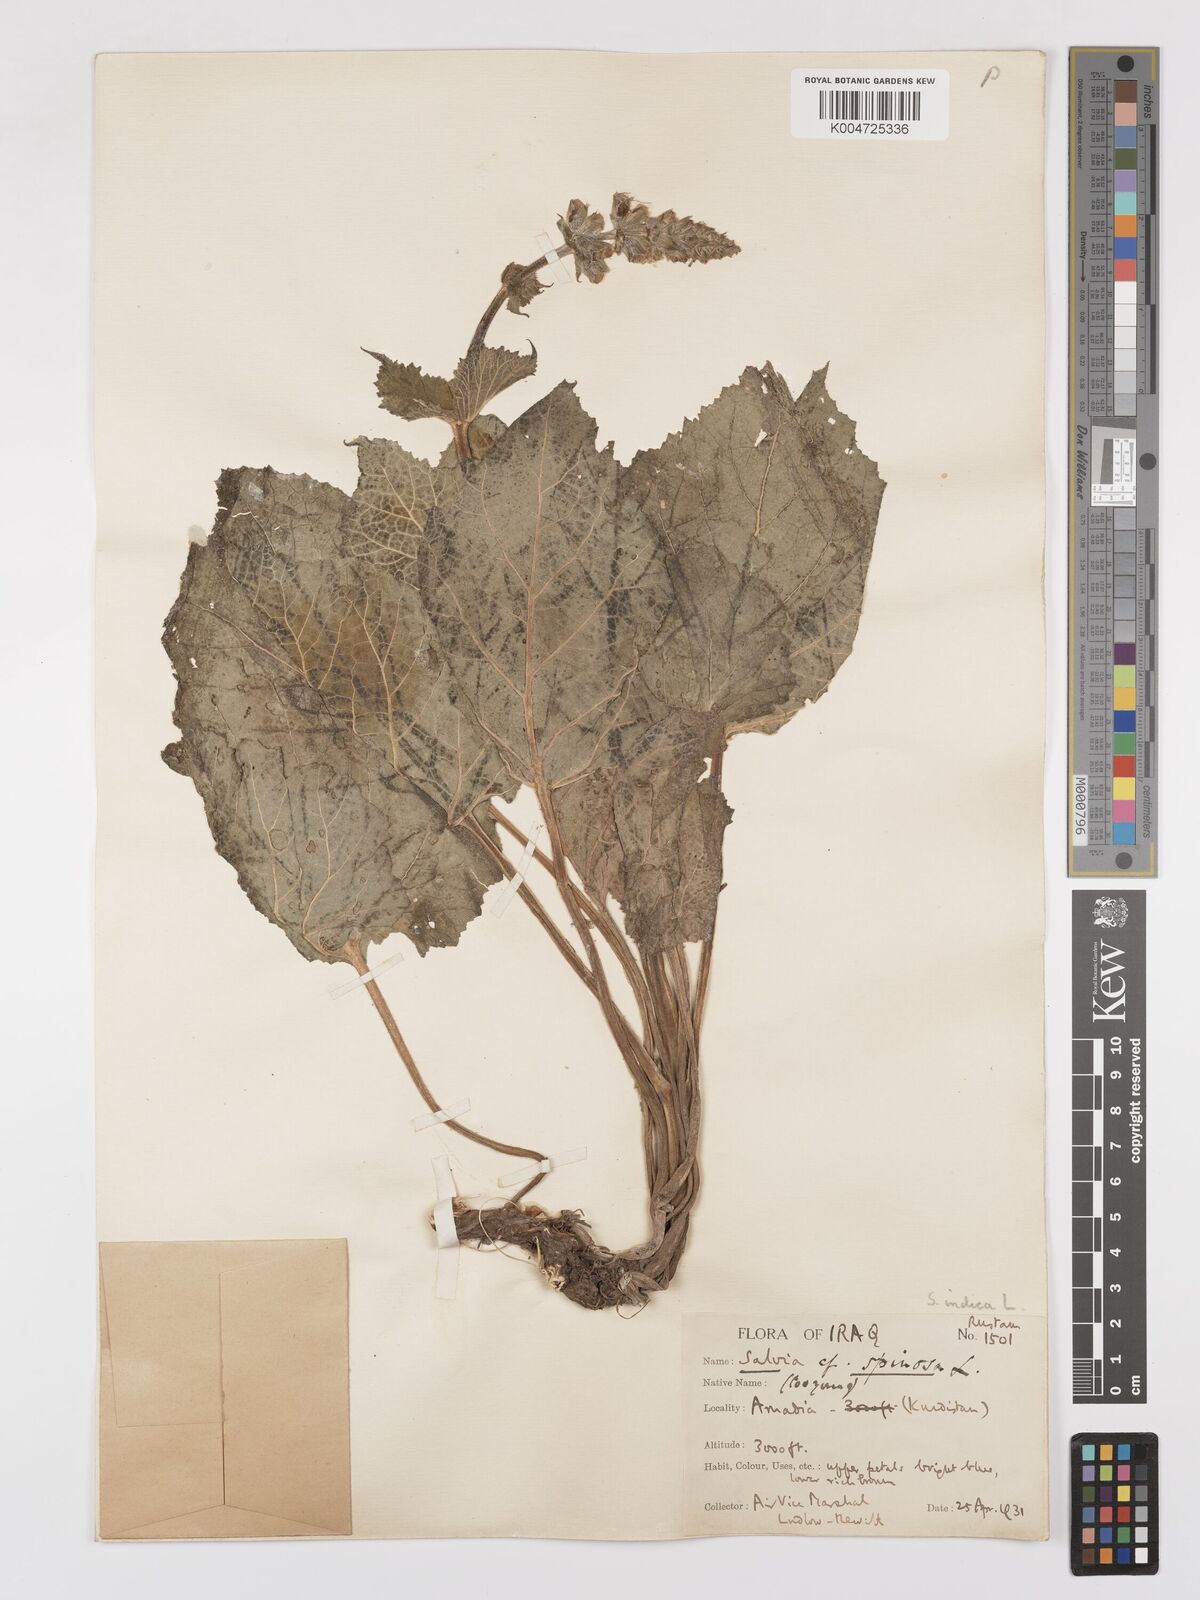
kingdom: Plantae
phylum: Tracheophyta
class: Magnoliopsida
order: Lamiales
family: Lamiaceae
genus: Salvia
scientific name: Salvia indica
